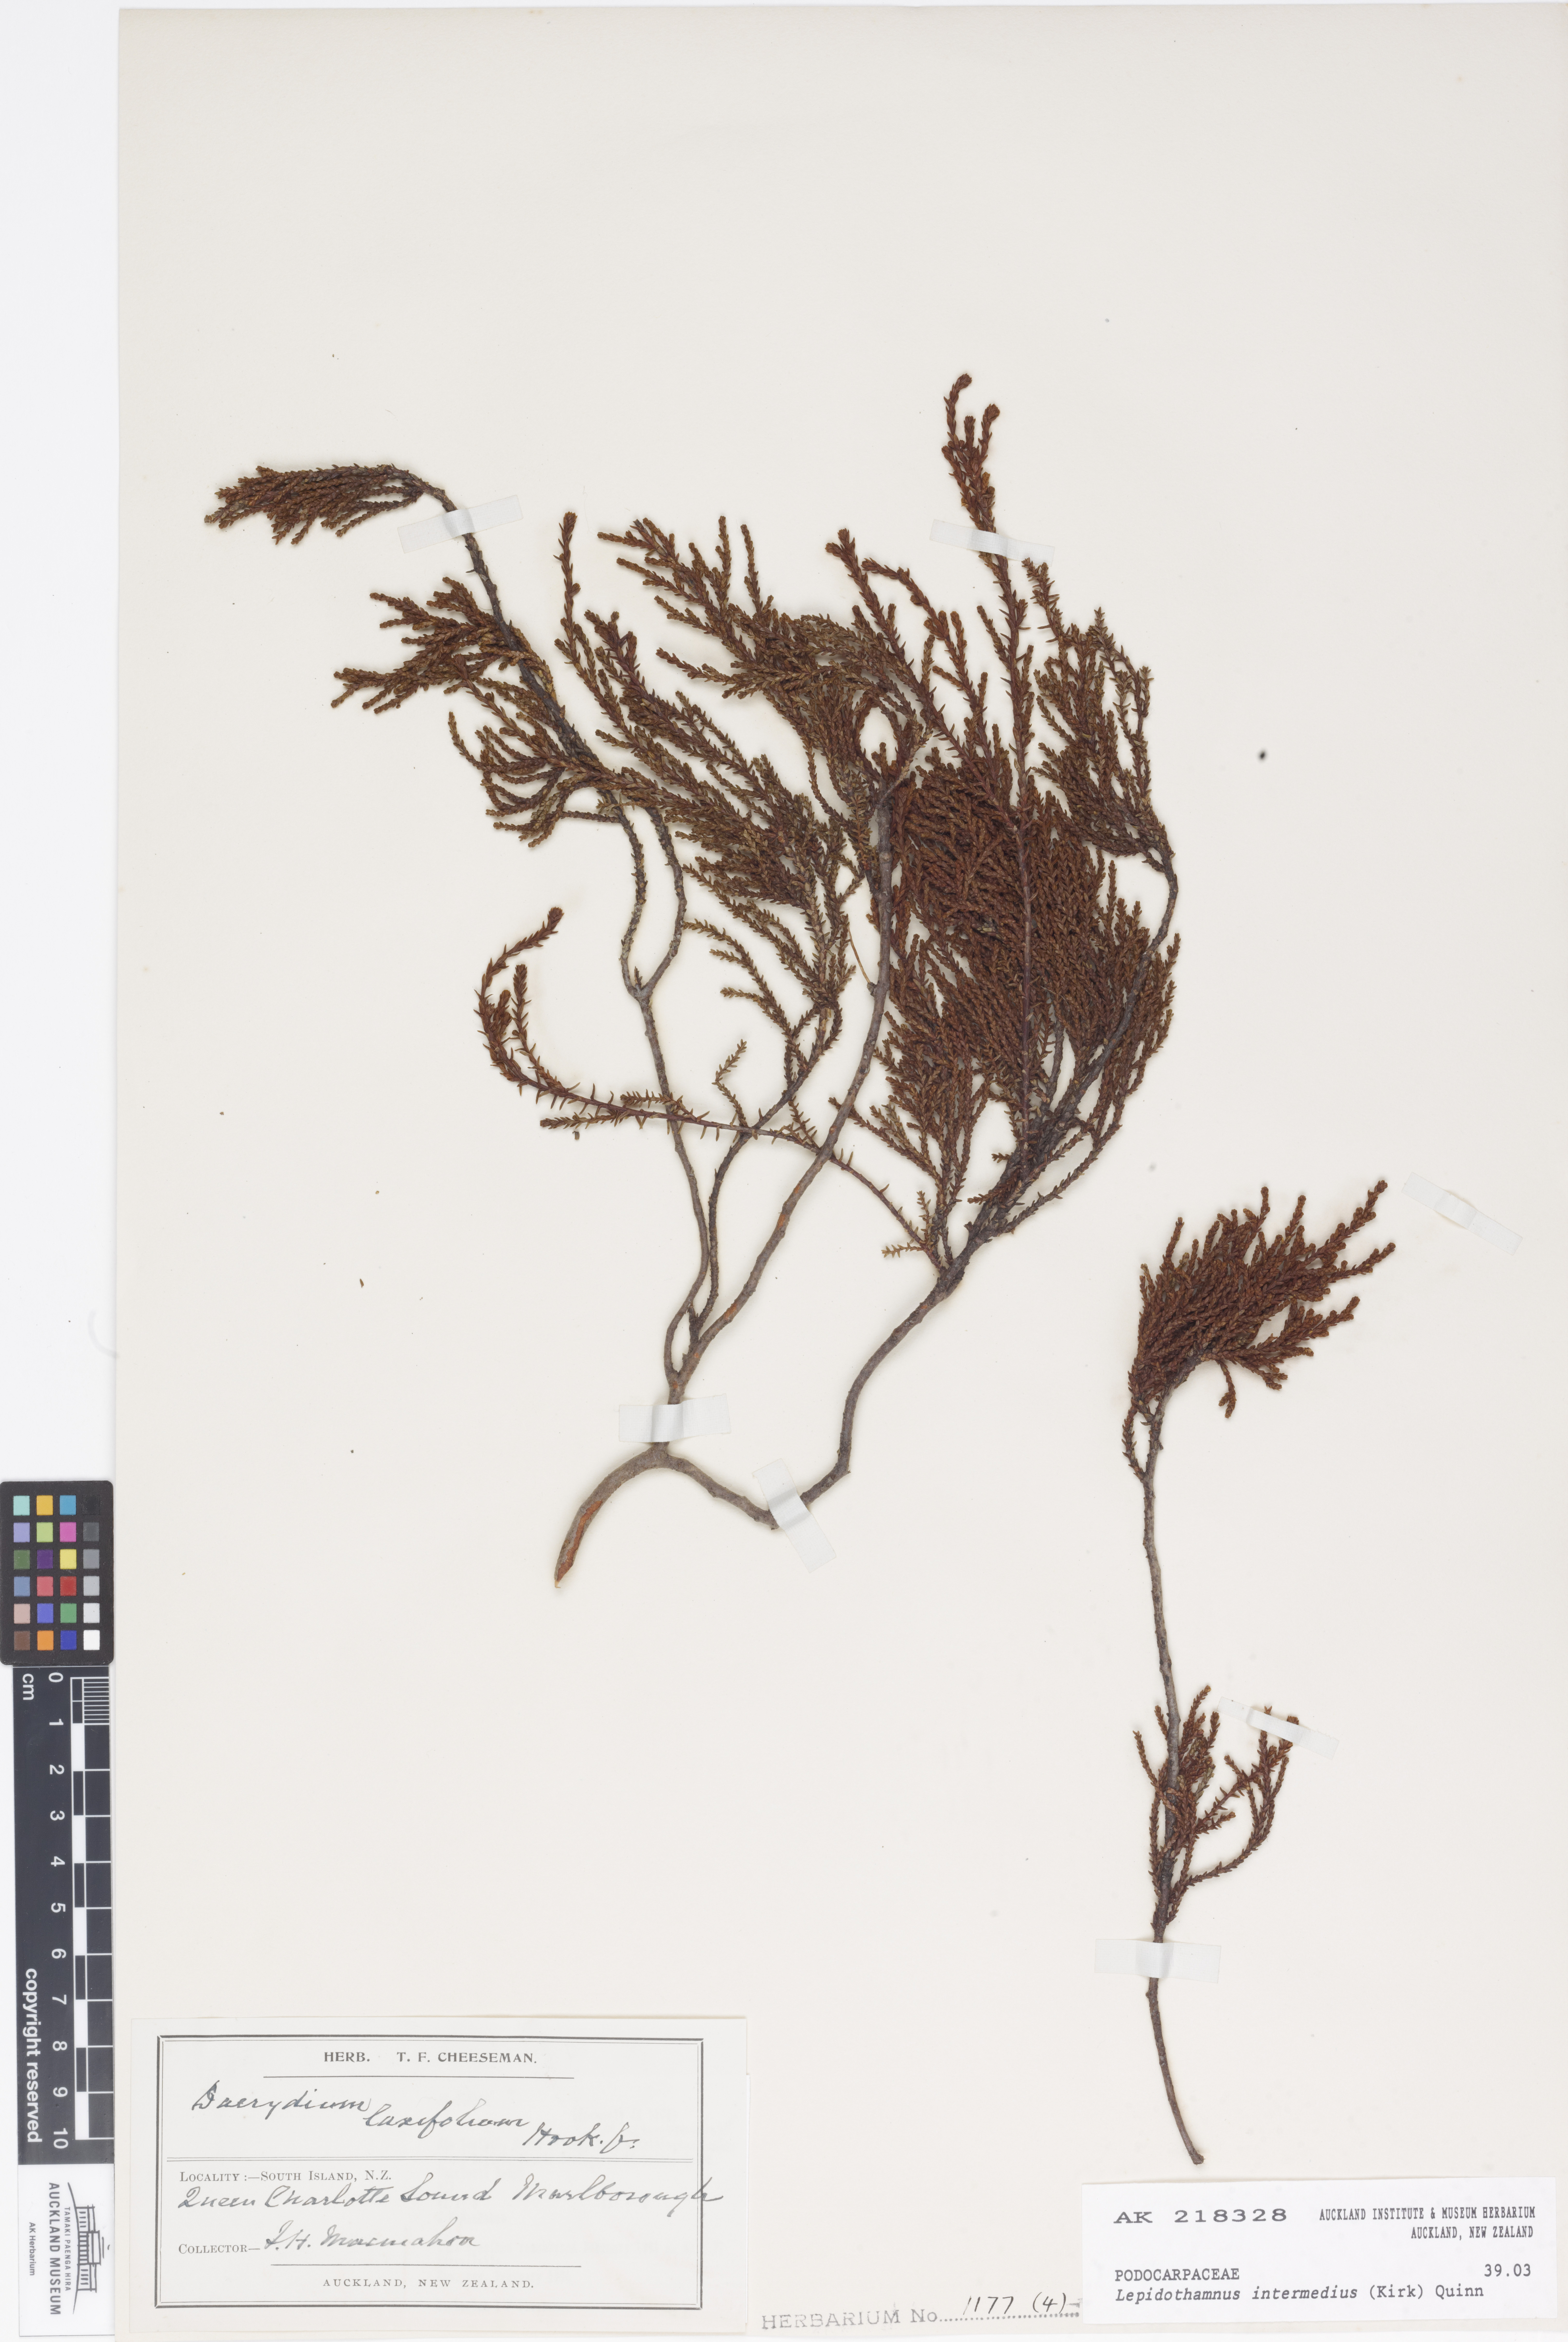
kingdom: Plantae
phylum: Tracheophyta
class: Pinopsida
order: Pinales
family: Podocarpaceae
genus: Lepidothamnus
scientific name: Lepidothamnus intermedius
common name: Yellow silver pine
